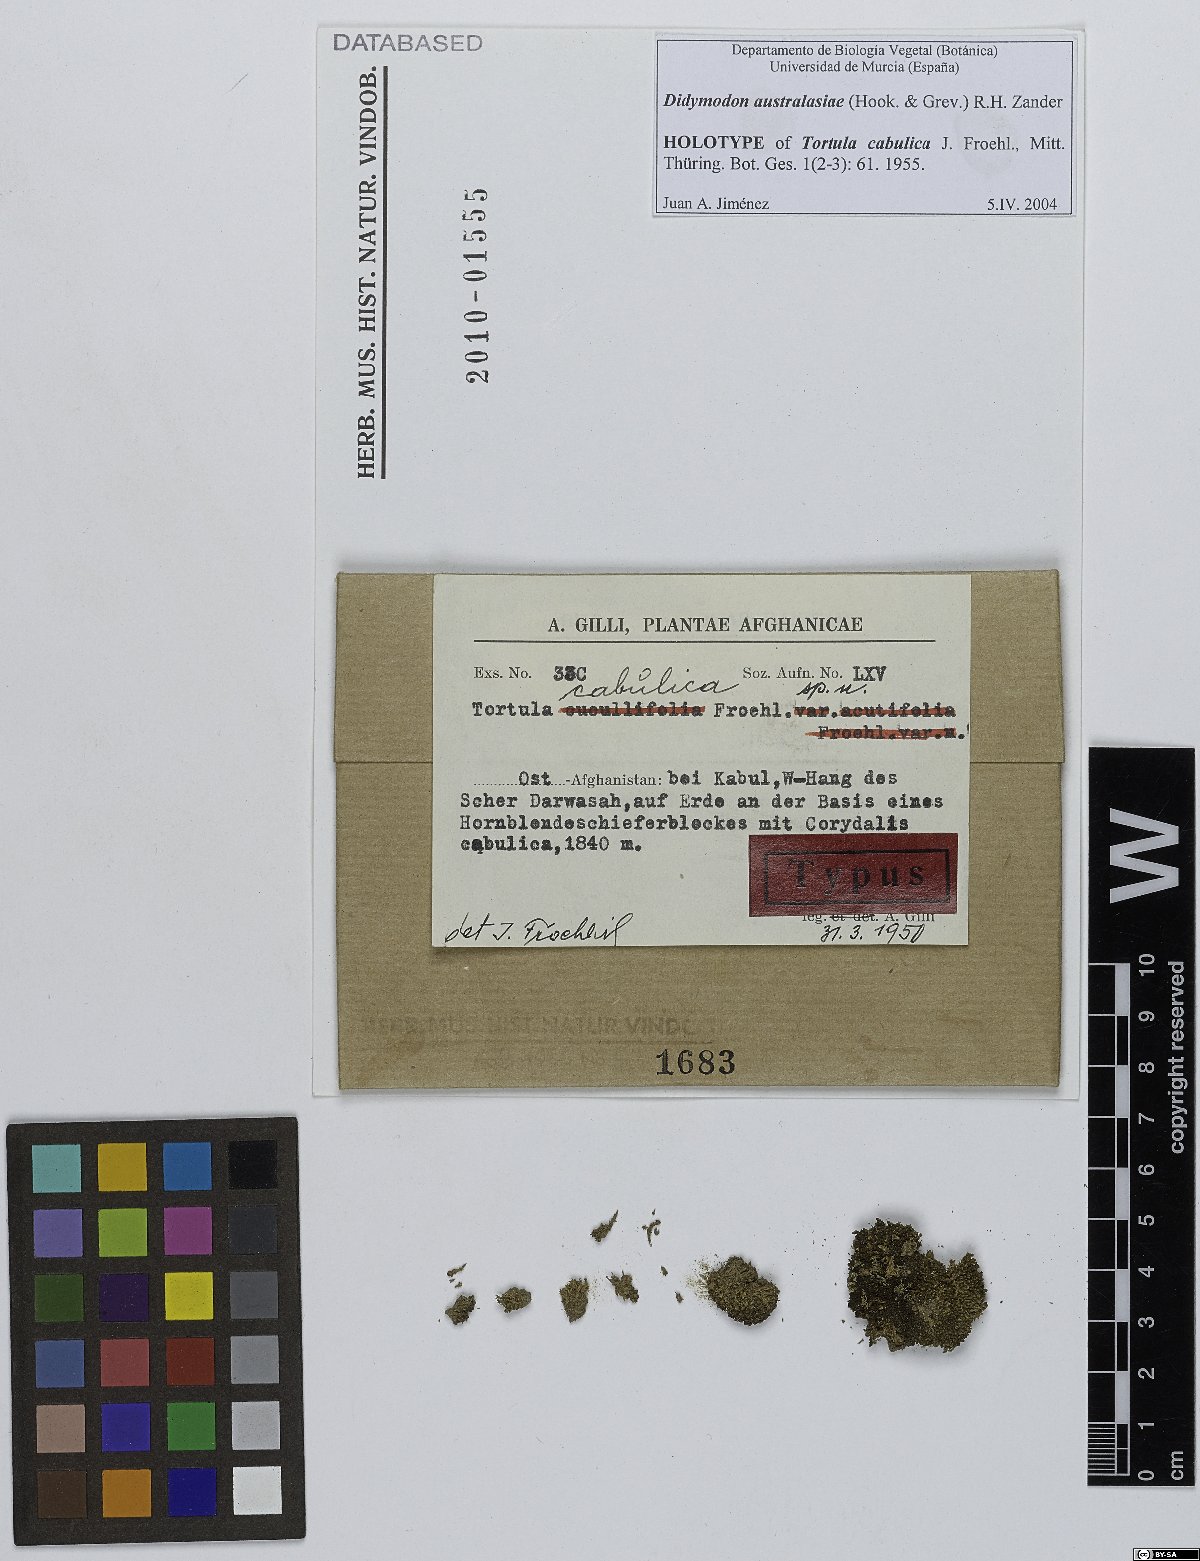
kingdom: Plantae
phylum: Bryophyta
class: Bryopsida
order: Pottiales
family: Pottiaceae
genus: Trichostomopsis
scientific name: Trichostomopsis australasiae
